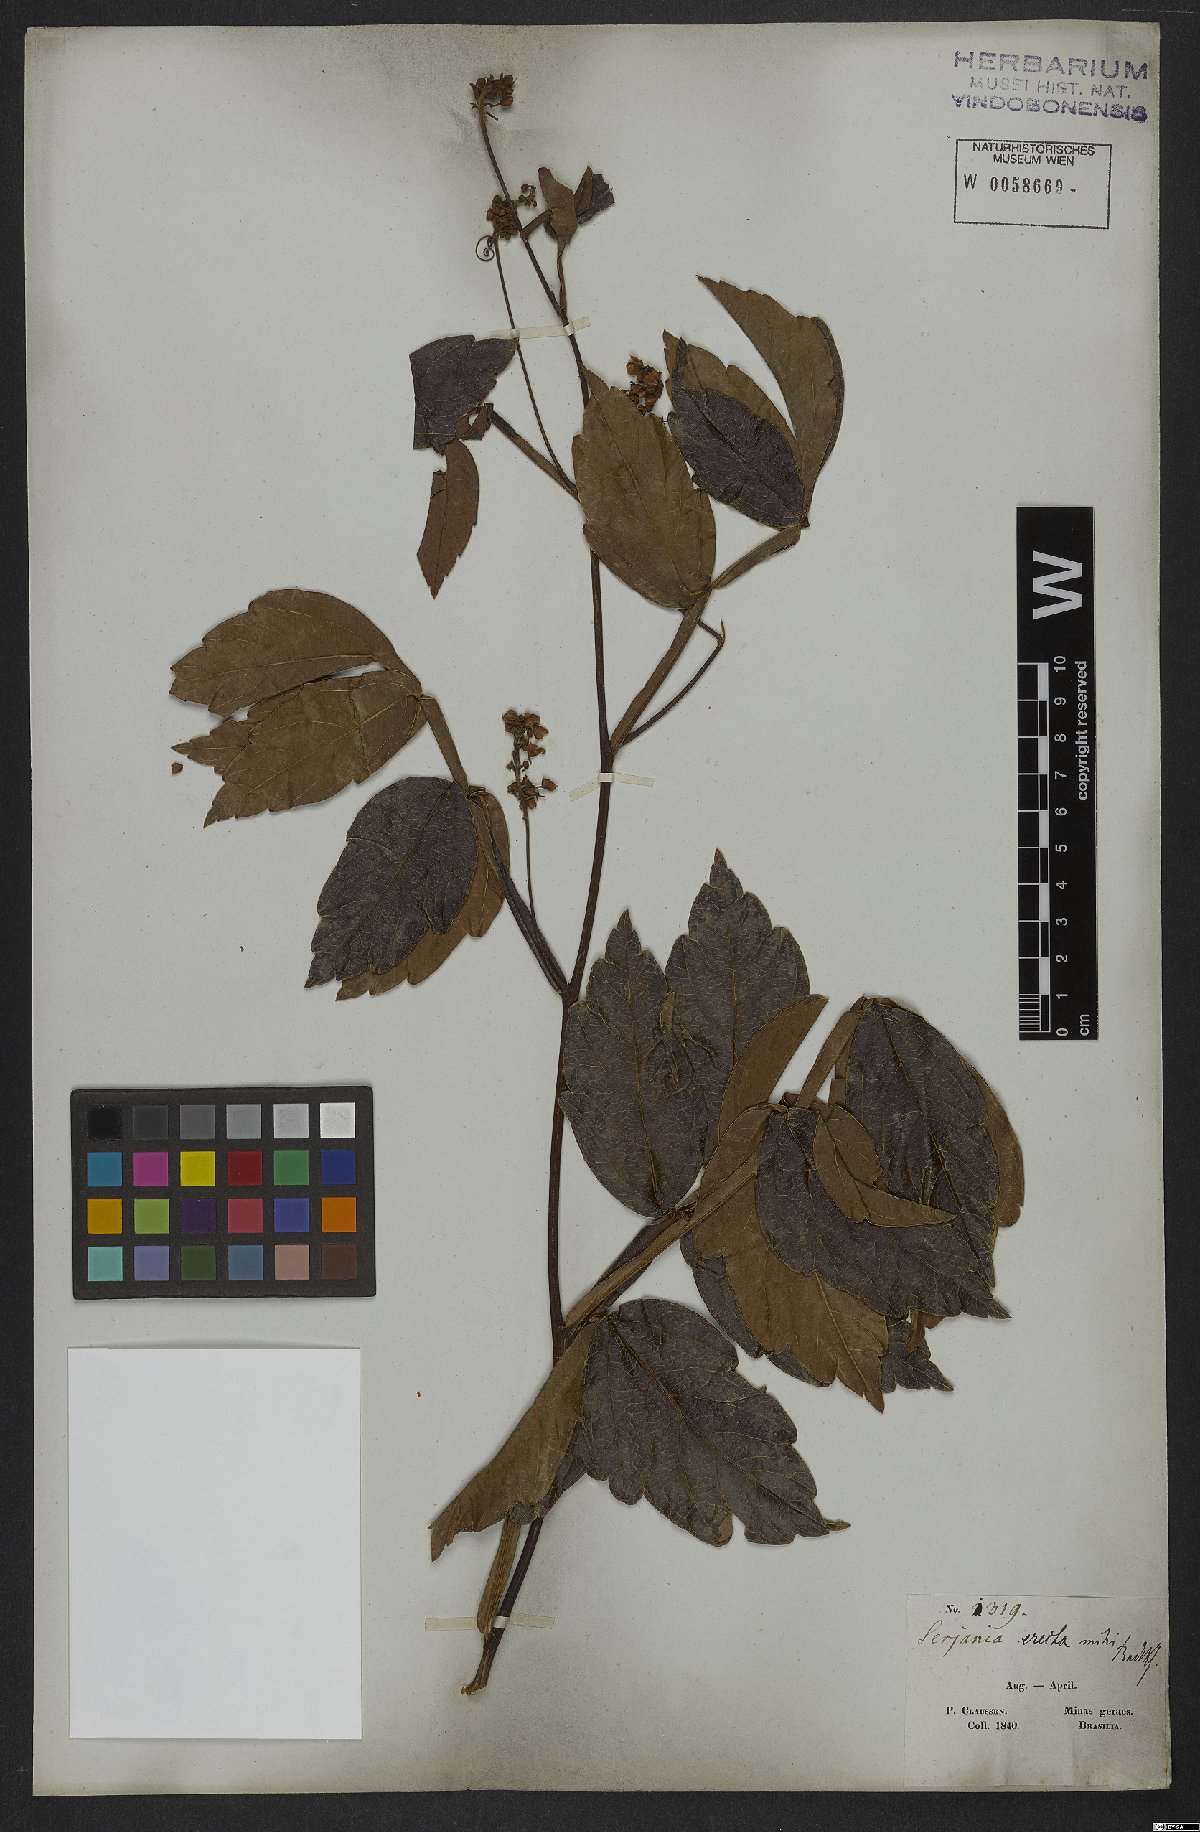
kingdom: Plantae
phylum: Tracheophyta
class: Magnoliopsida
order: Sapindales
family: Sapindaceae
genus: Serjania
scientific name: Serjania erecta
